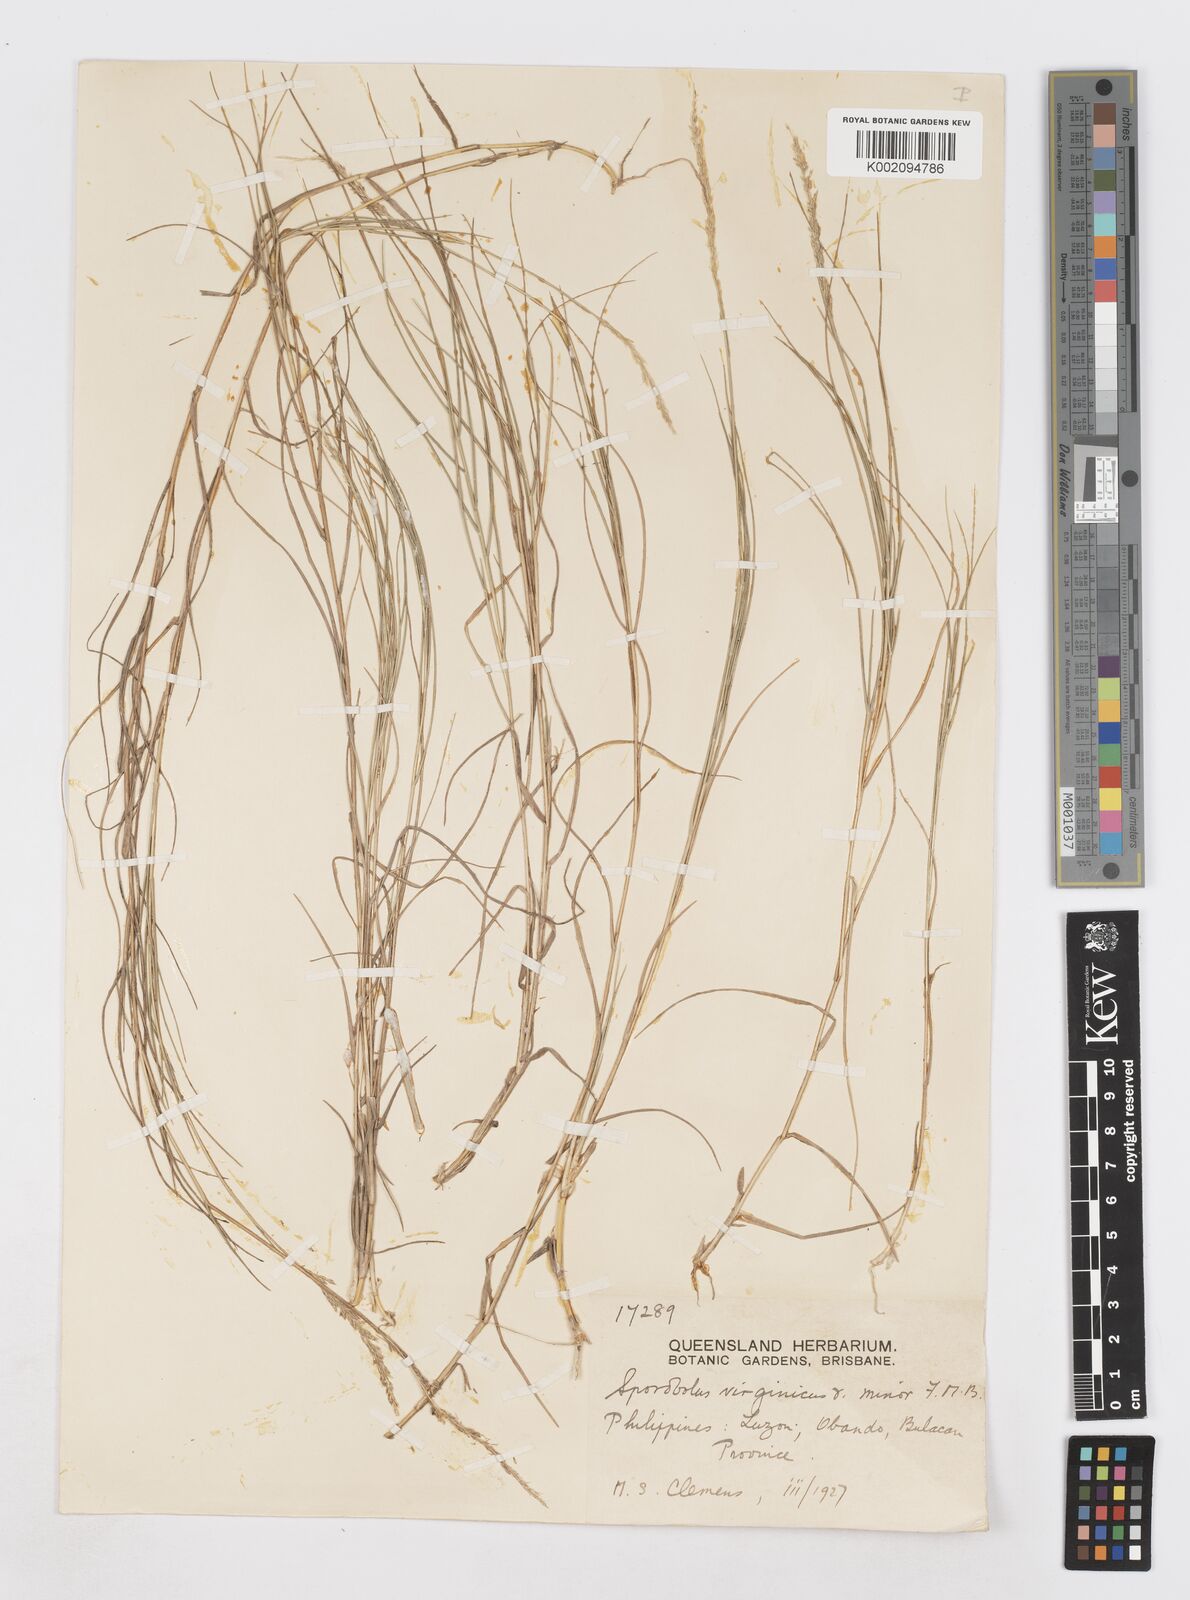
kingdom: Plantae
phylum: Tracheophyta
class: Liliopsida
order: Poales
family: Poaceae
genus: Sporobolus
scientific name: Sporobolus virginicus
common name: Beach dropseed
